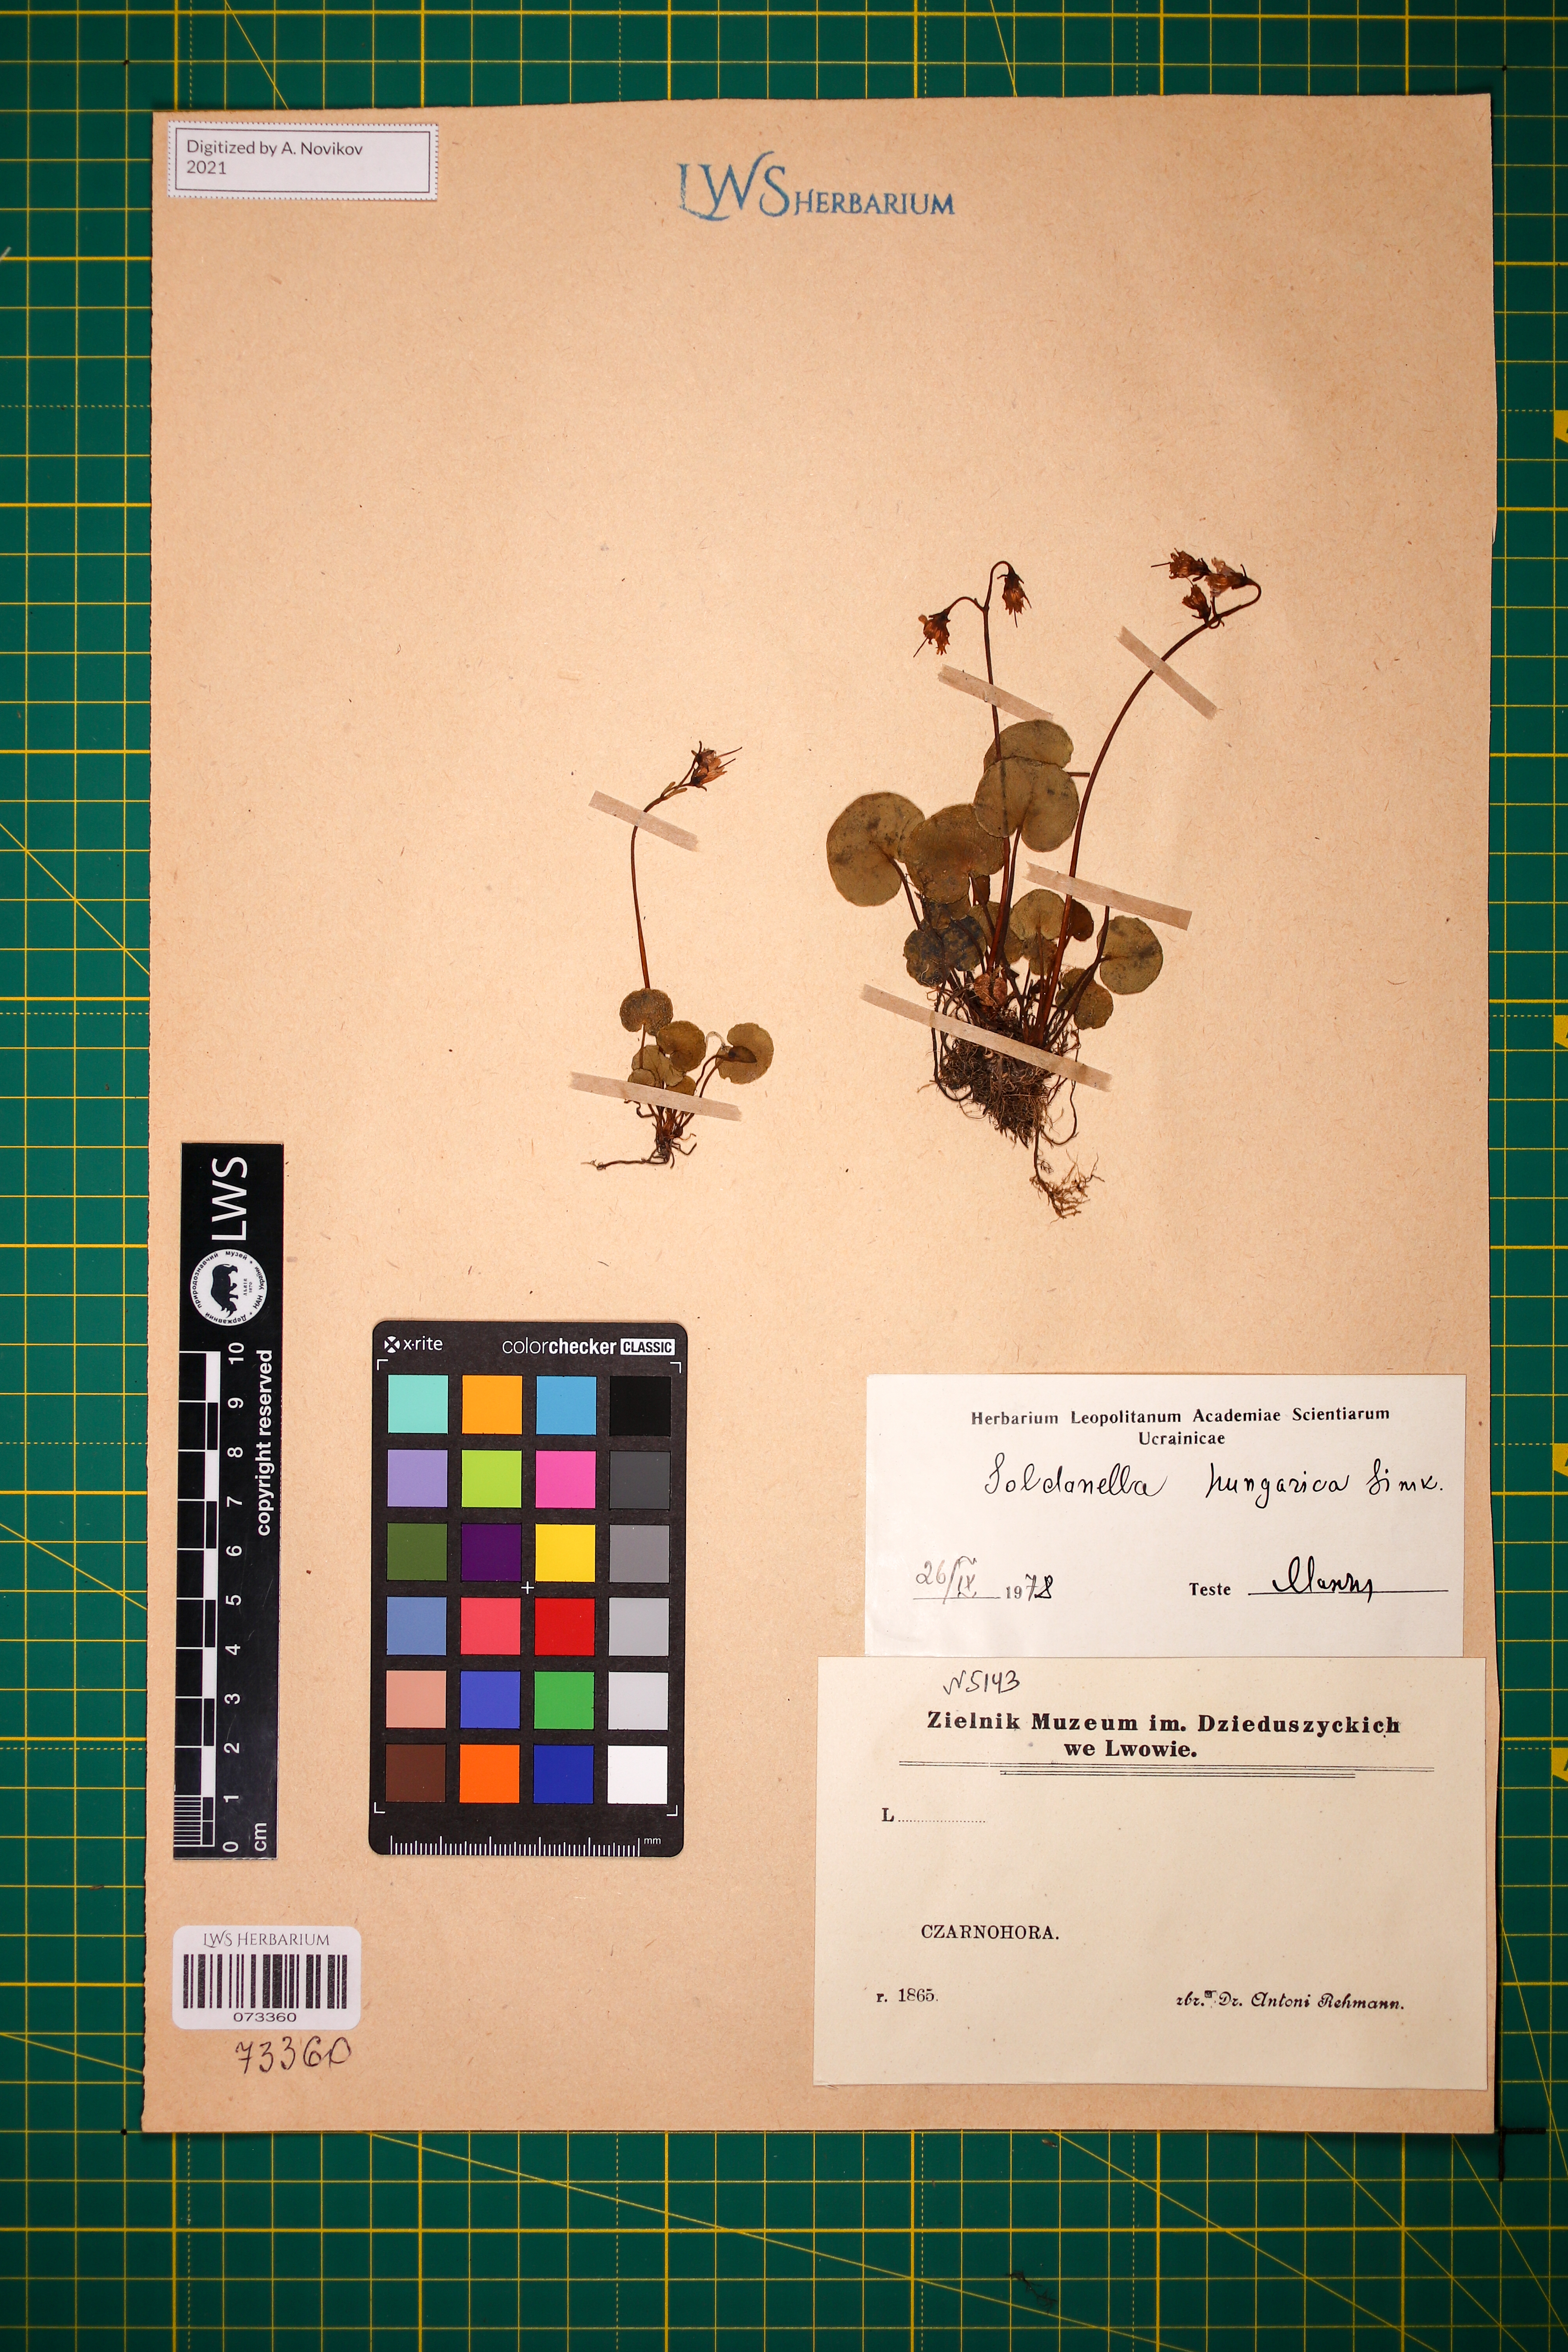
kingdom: Plantae
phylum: Tracheophyta
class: Magnoliopsida
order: Ericales
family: Primulaceae
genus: Soldanella
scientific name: Soldanella hungarica
